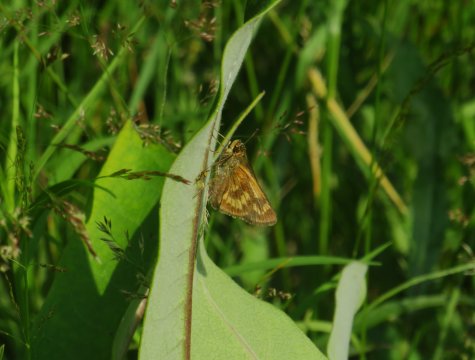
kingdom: Animalia
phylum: Arthropoda
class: Insecta
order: Lepidoptera
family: Hesperiidae
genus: Polites
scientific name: Polites
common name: Long Dash Skipper
